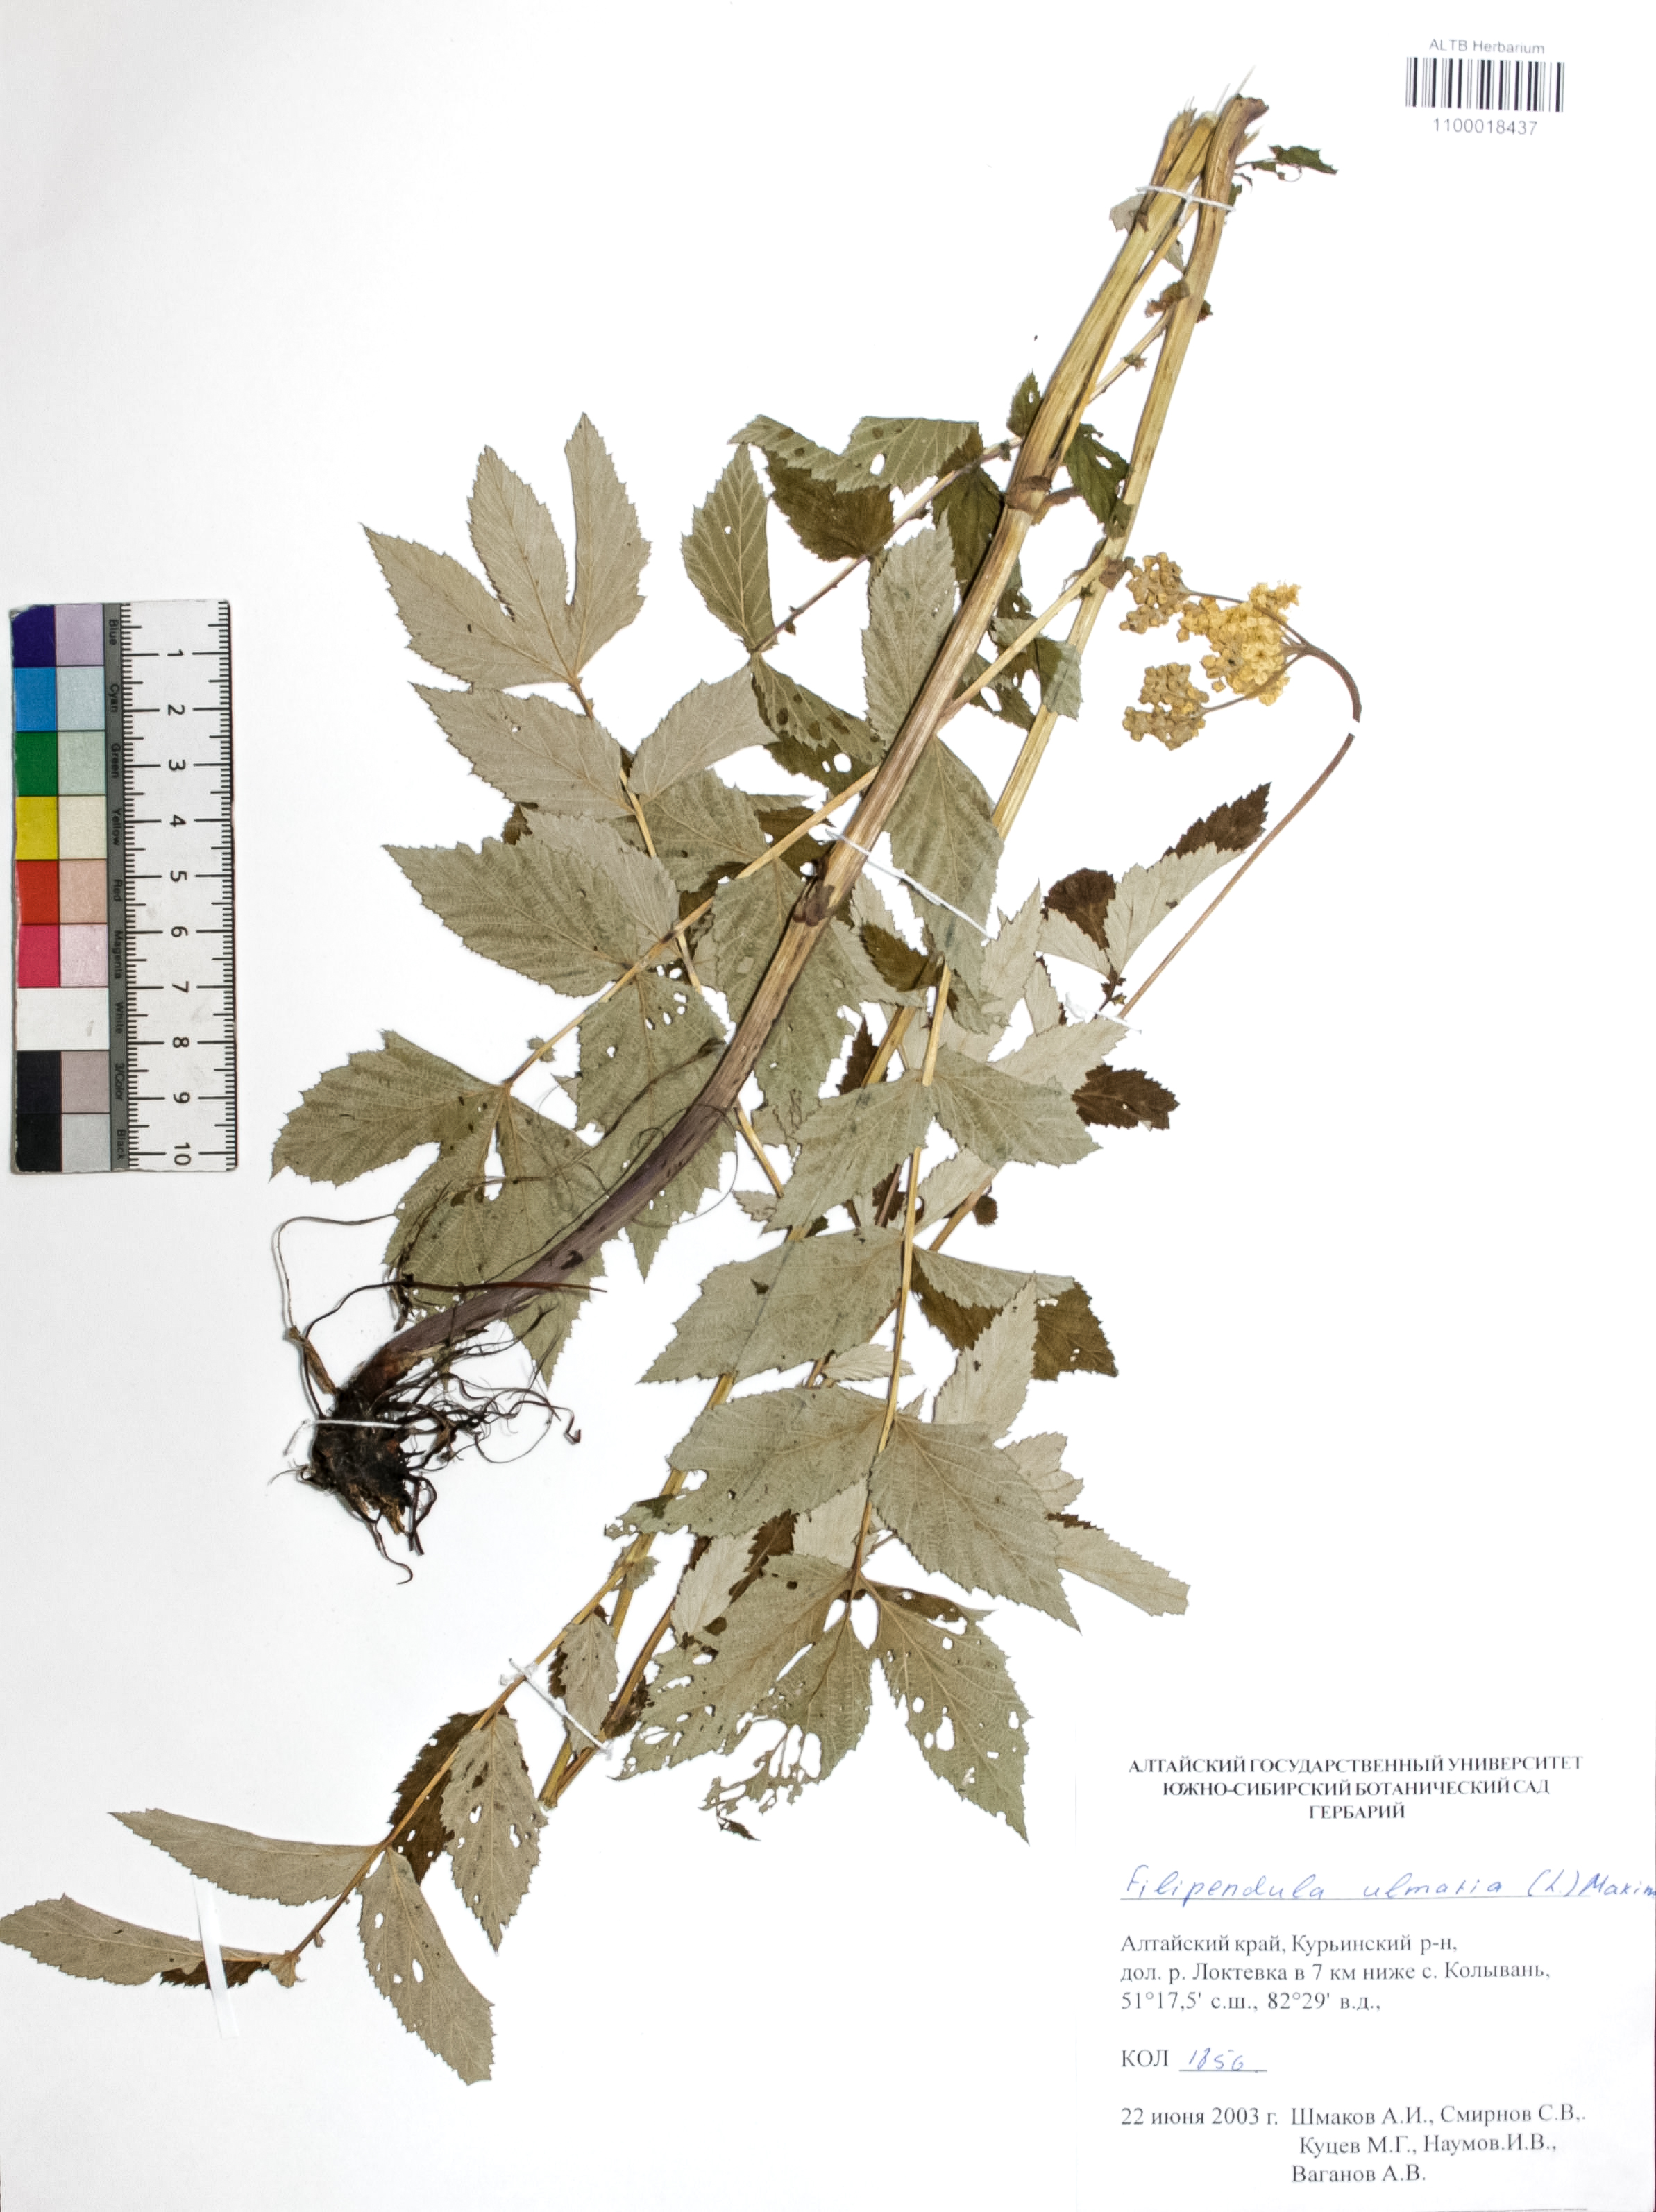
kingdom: Plantae
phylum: Tracheophyta
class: Magnoliopsida
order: Rosales
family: Rosaceae
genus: Filipendula
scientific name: Filipendula ulmaria
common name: Meadowsweet
